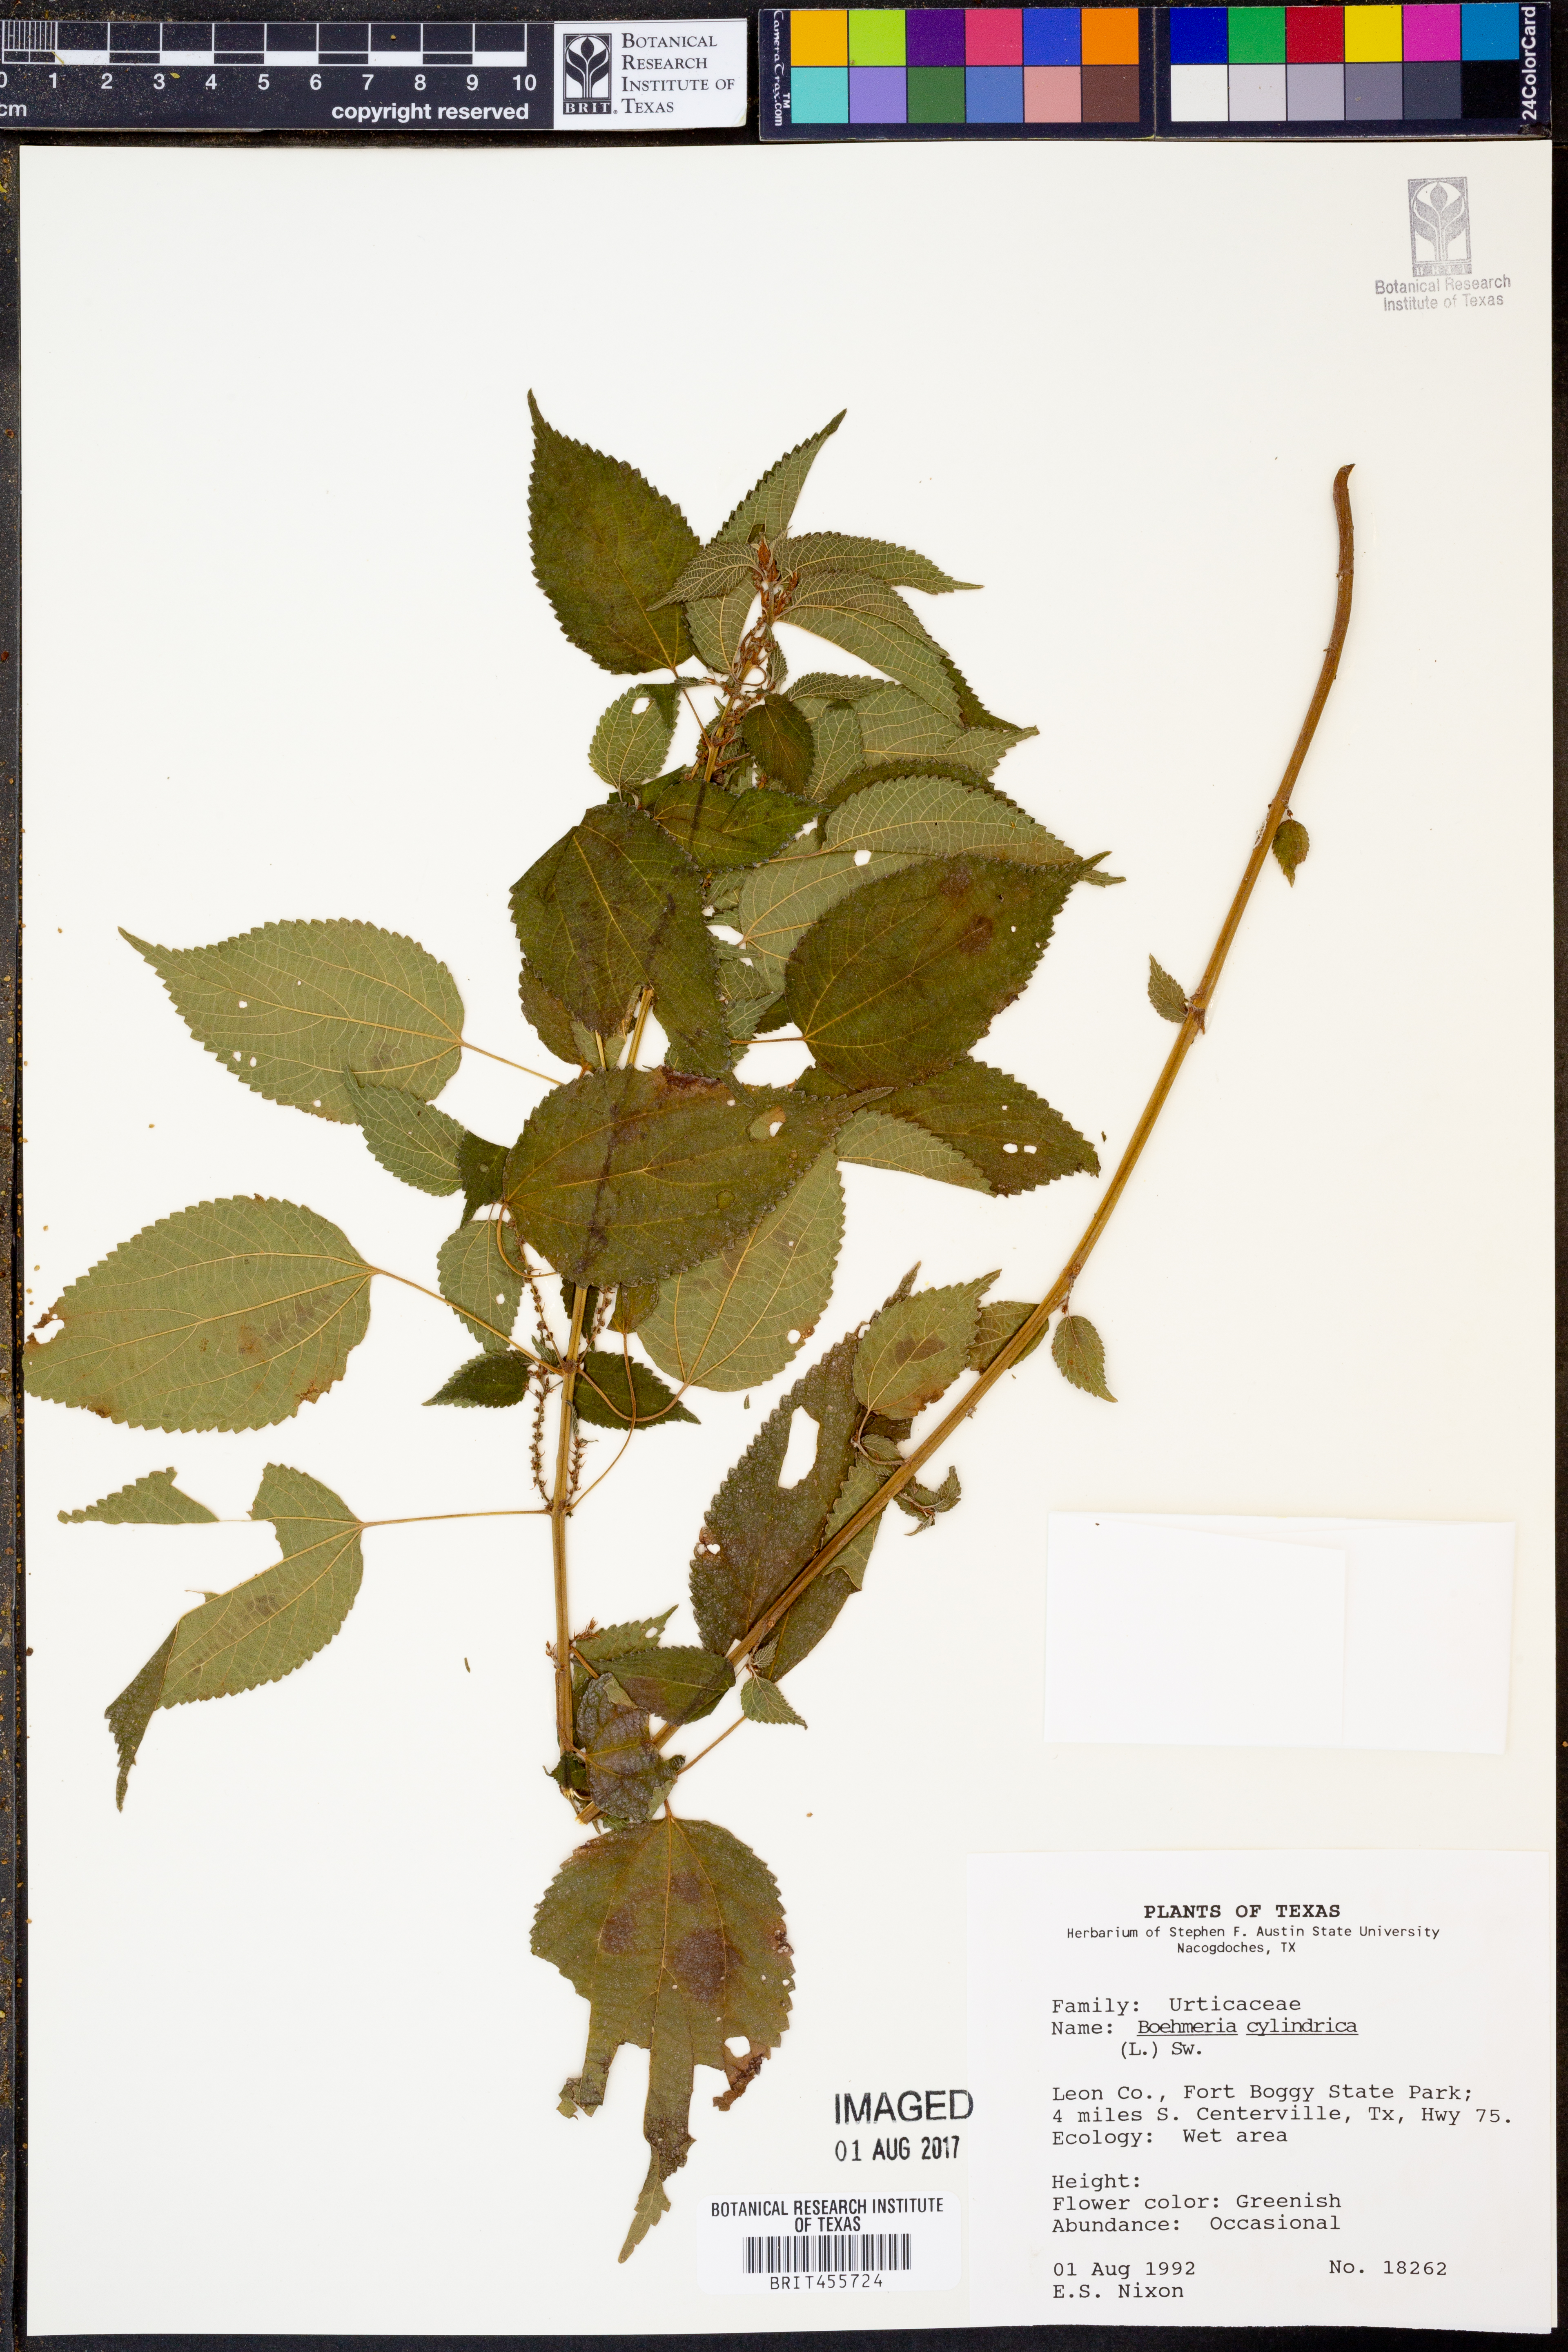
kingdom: Plantae
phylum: Tracheophyta
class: Magnoliopsida
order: Rosales
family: Urticaceae
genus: Boehmeria
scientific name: Boehmeria cylindrica
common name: Bog-hemp
